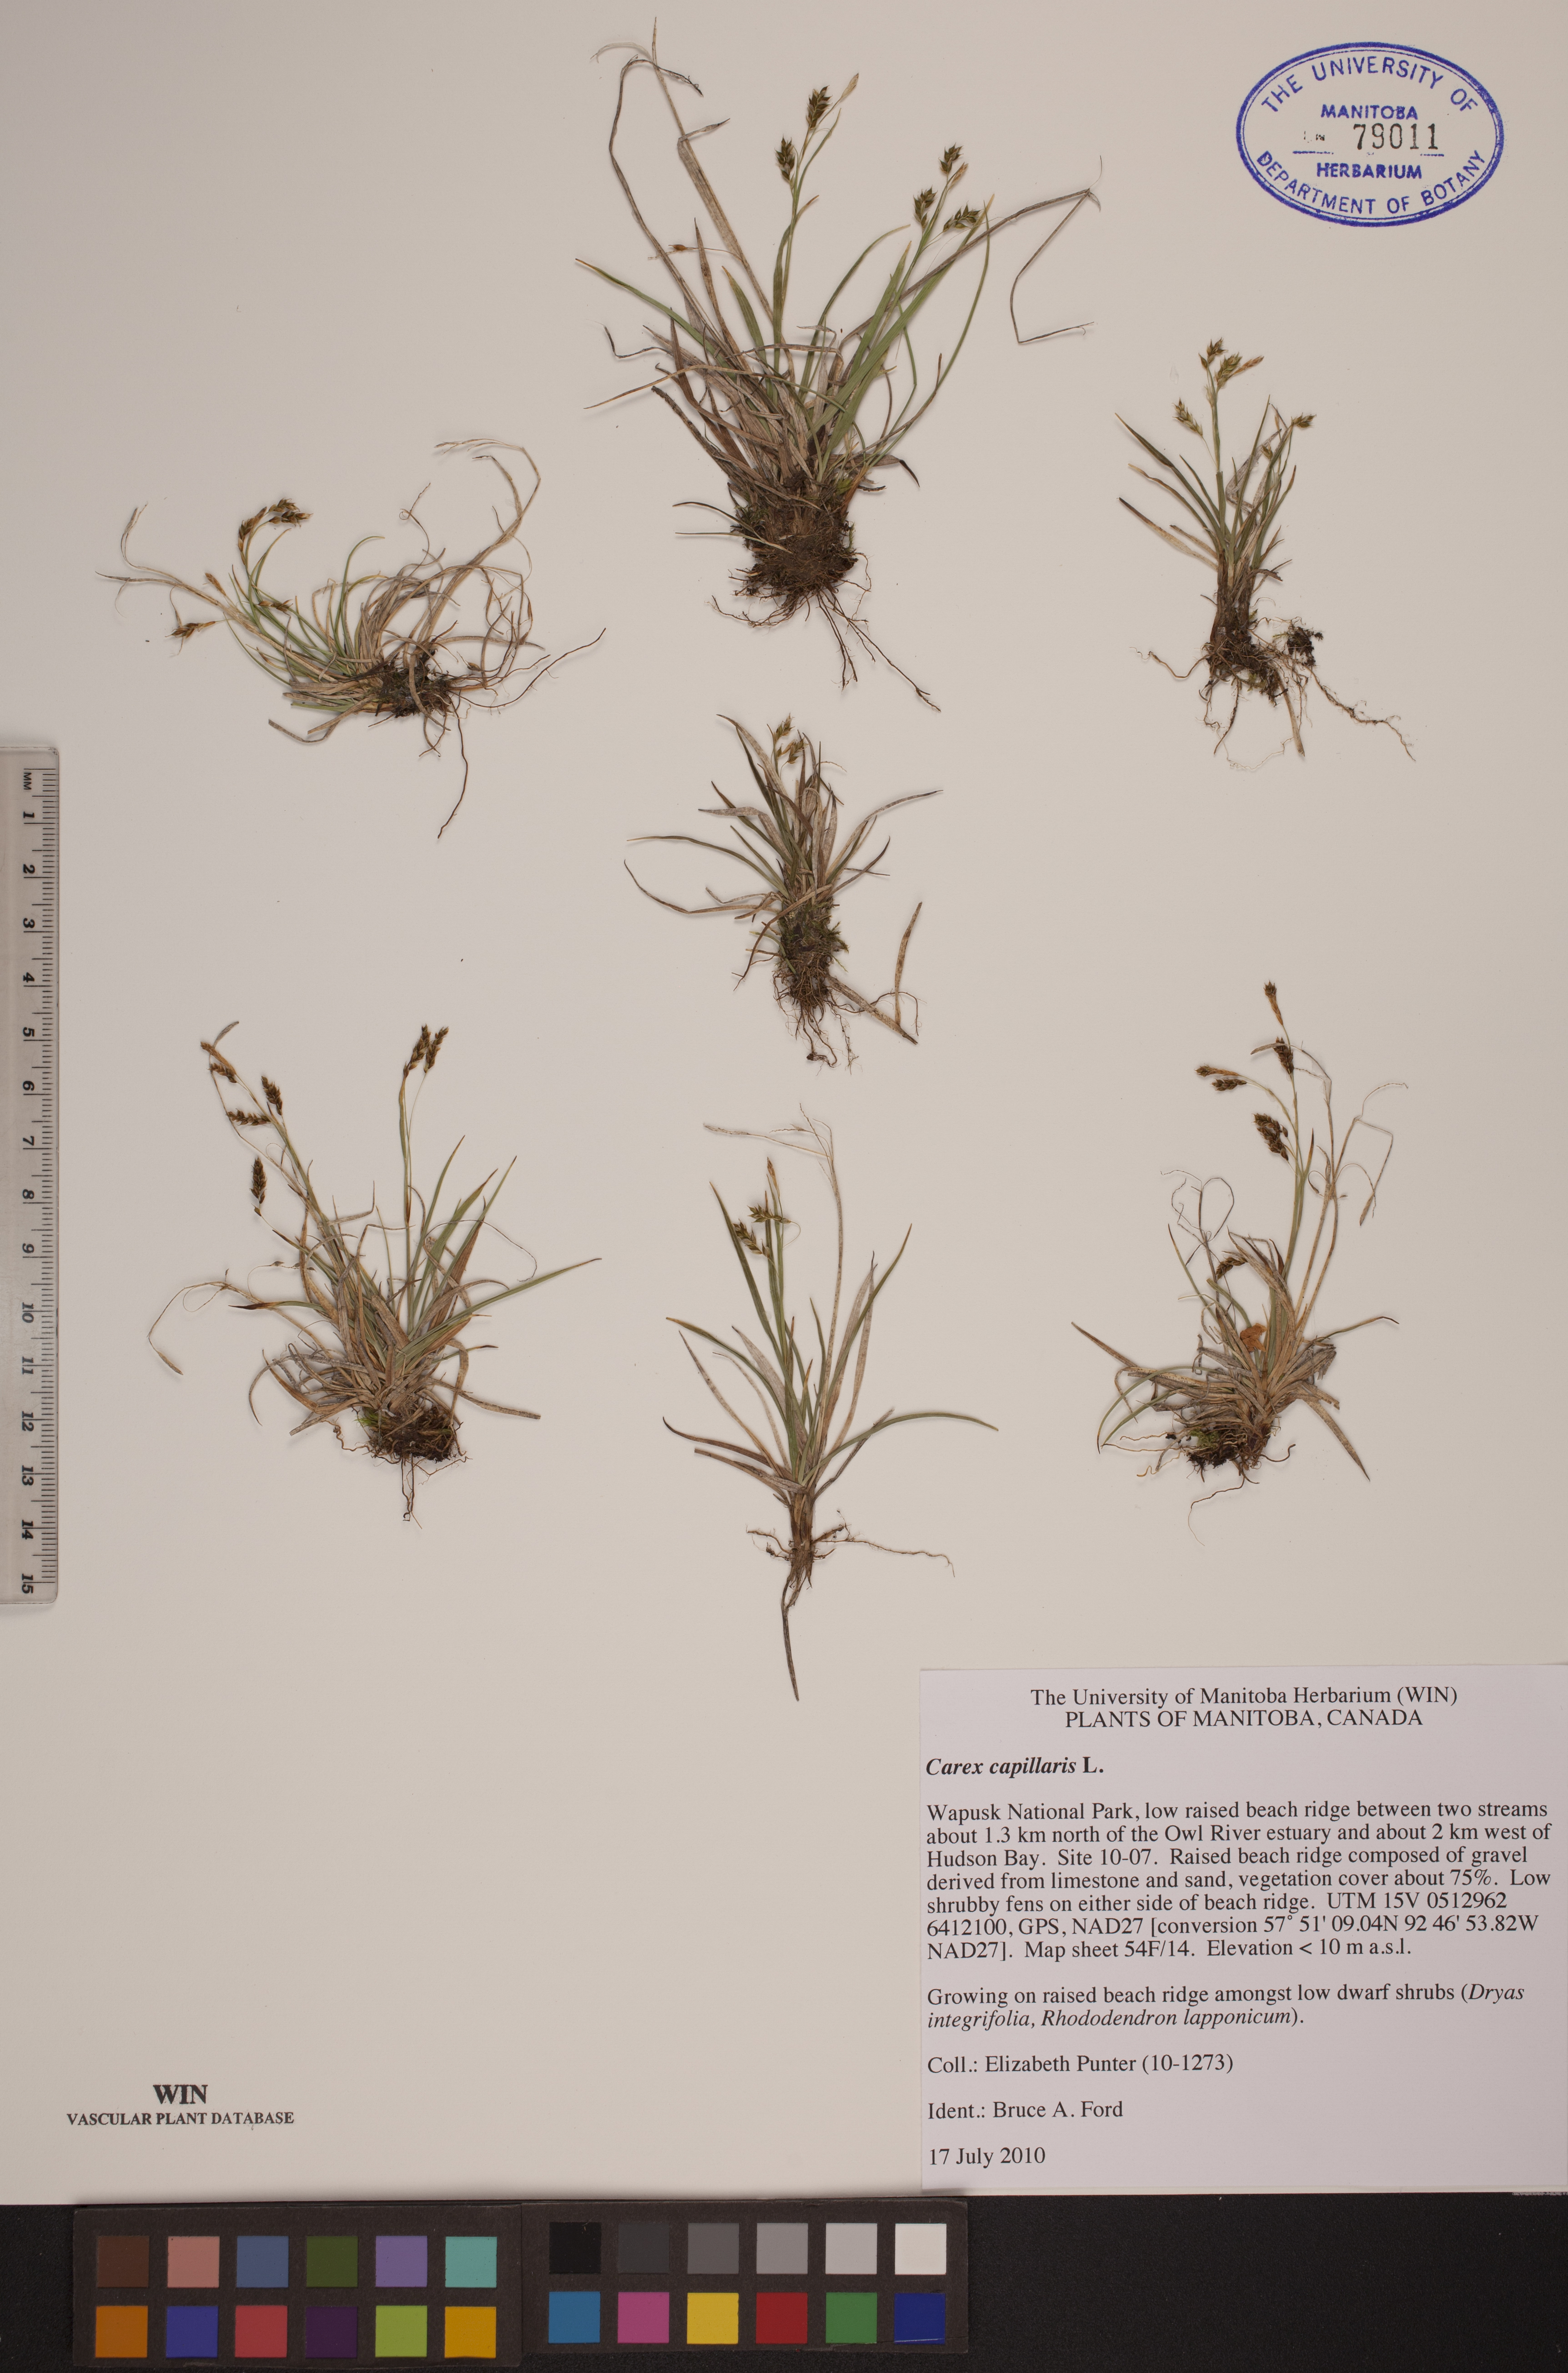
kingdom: Plantae
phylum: Tracheophyta
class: Liliopsida
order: Poales
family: Cyperaceae
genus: Carex
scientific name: Carex capillaris
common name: Hair sedge
